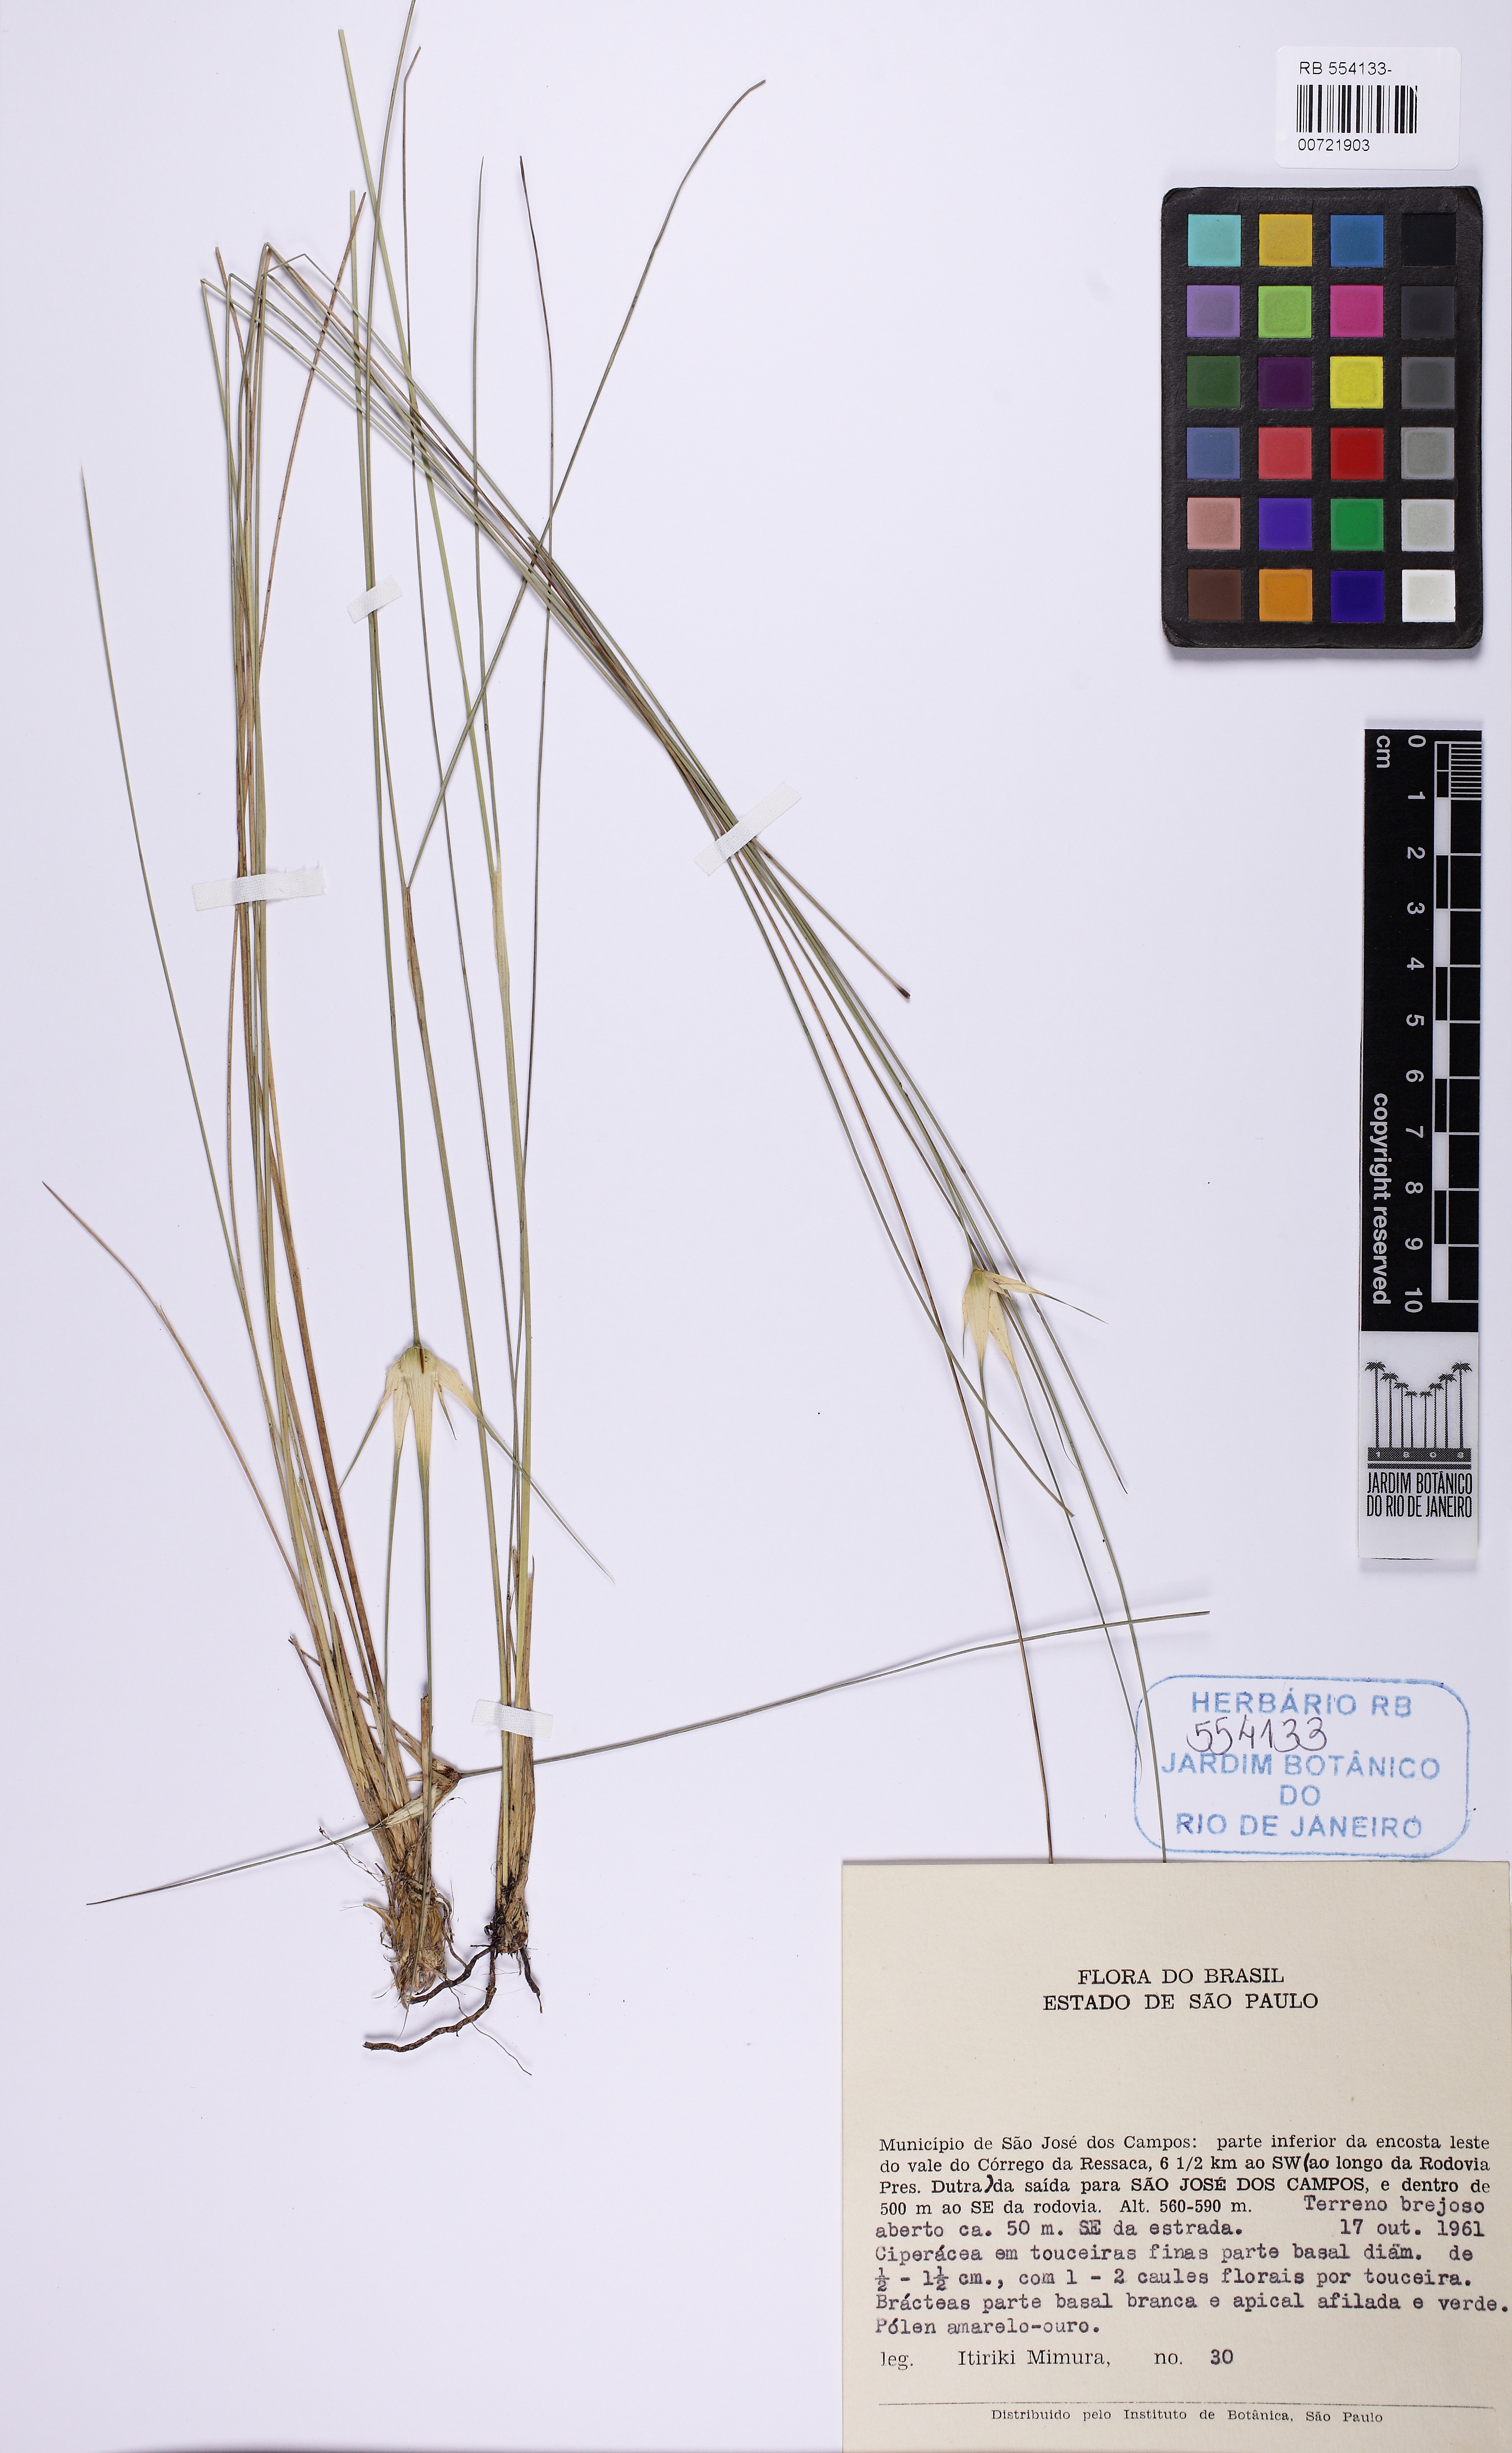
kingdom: Plantae
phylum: Tracheophyta
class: Liliopsida
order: Poales
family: Cyperaceae
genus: Rhynchospora
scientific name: Rhynchospora
